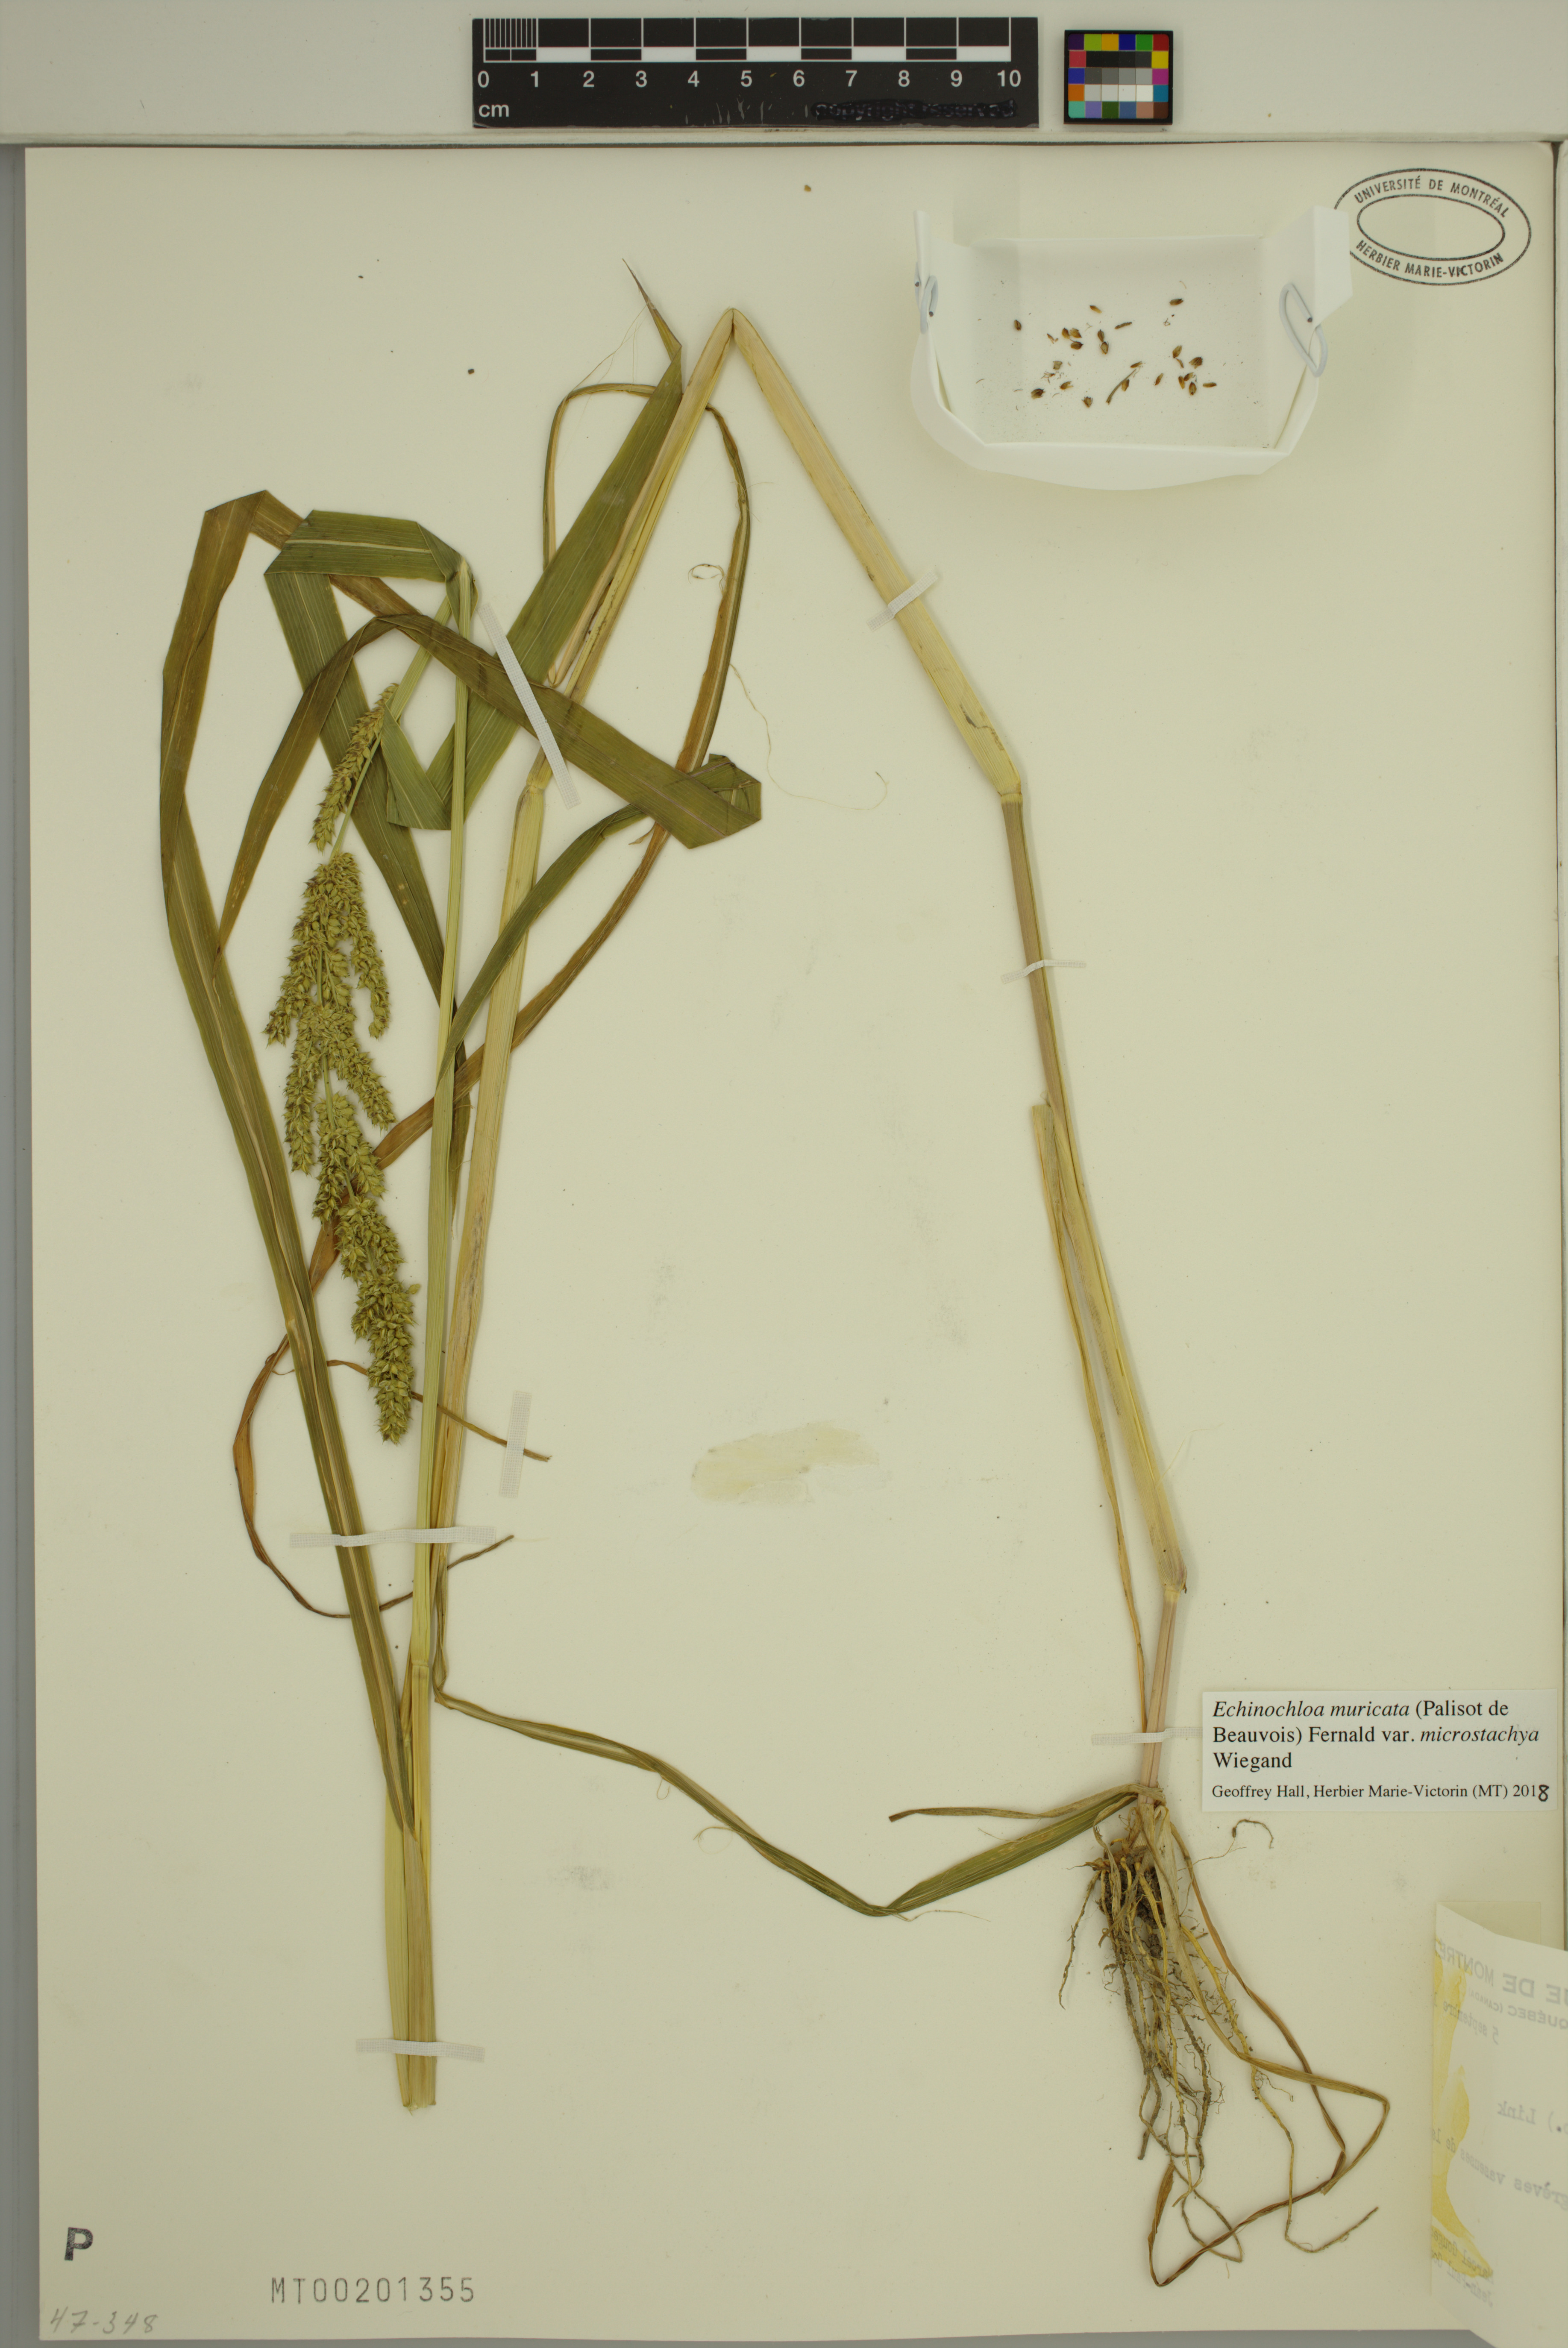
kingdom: Plantae
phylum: Tracheophyta
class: Liliopsida
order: Poales
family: Poaceae
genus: Echinochloa
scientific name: Echinochloa muricata
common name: American barnyard grass
